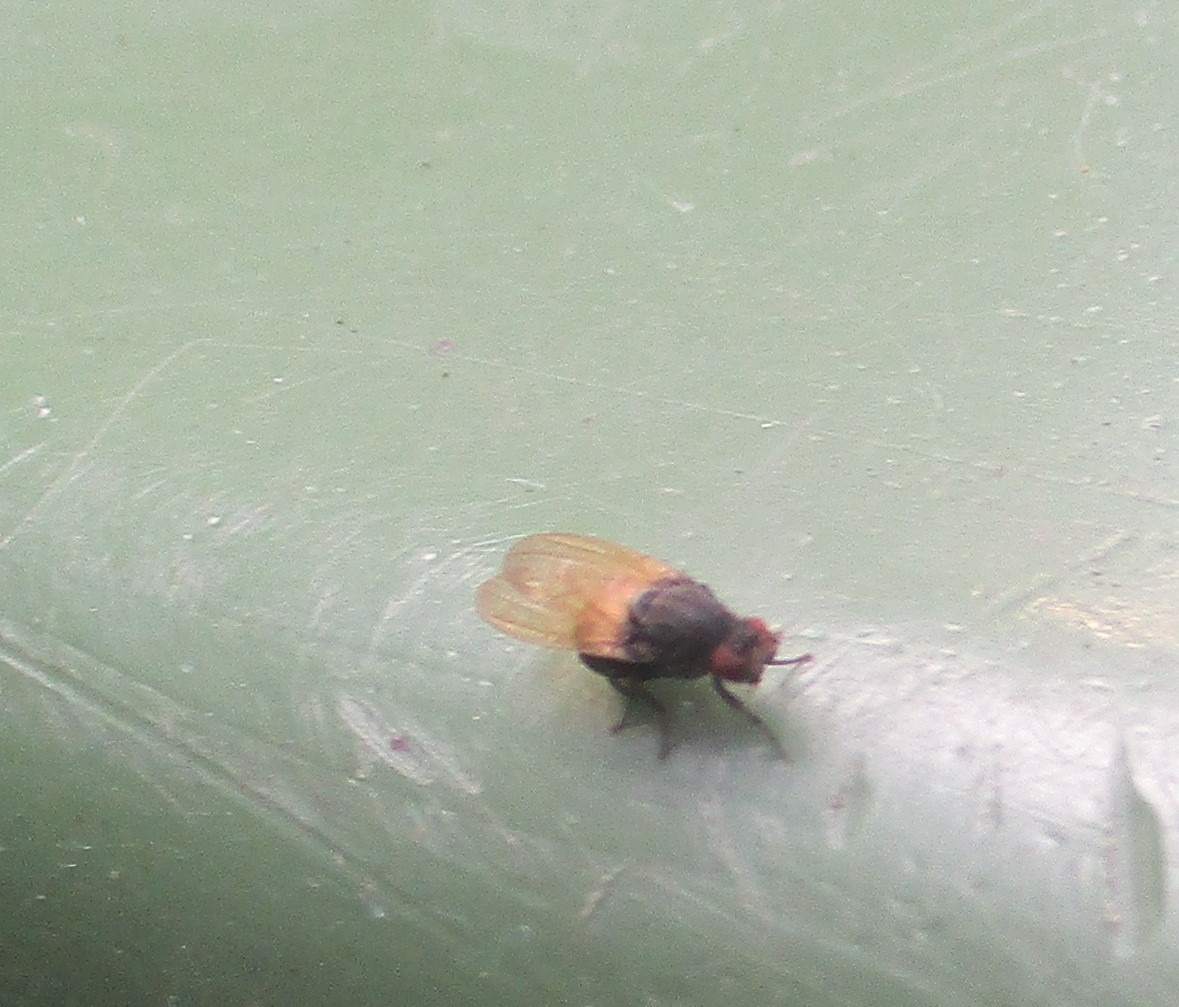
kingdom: Animalia
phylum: Arthropoda
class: Insecta
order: Diptera
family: Lauxaniidae
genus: Minettia
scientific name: Minettia longipennis
